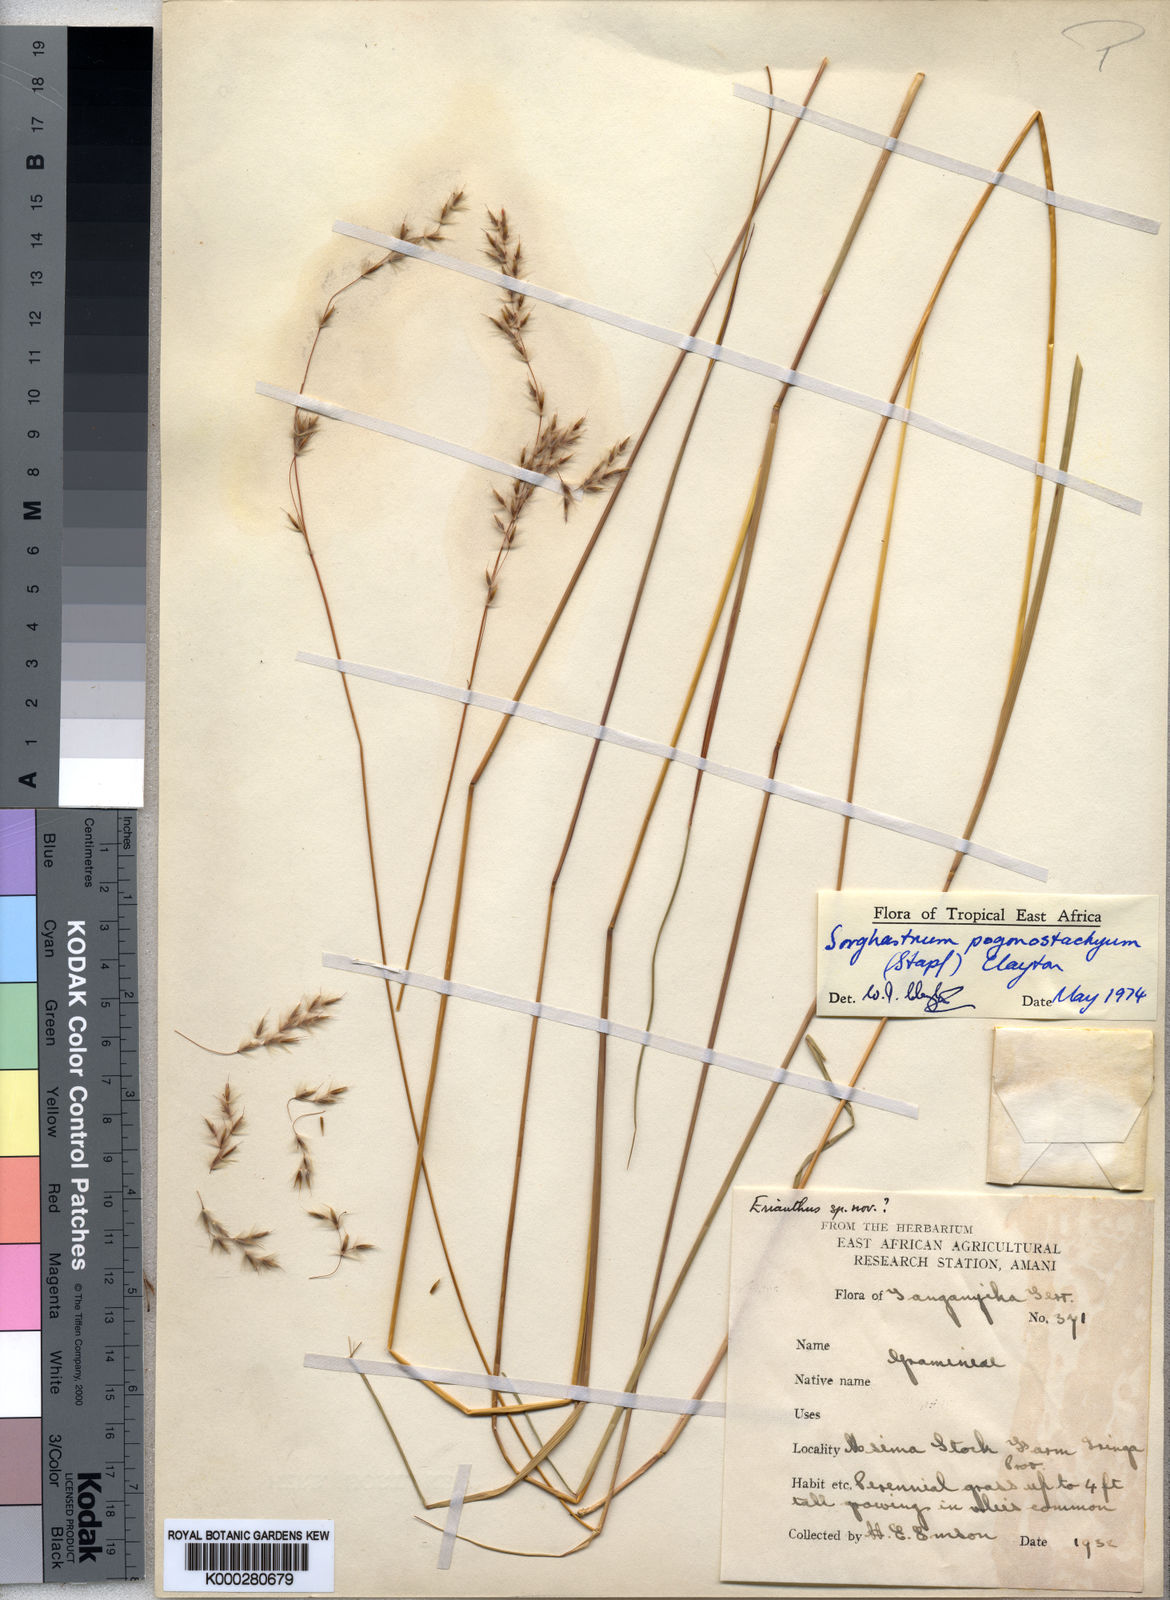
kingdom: Plantae
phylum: Tracheophyta
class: Liliopsida
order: Poales
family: Poaceae
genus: Sorghastrum
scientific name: Sorghastrum pogonostachyum
